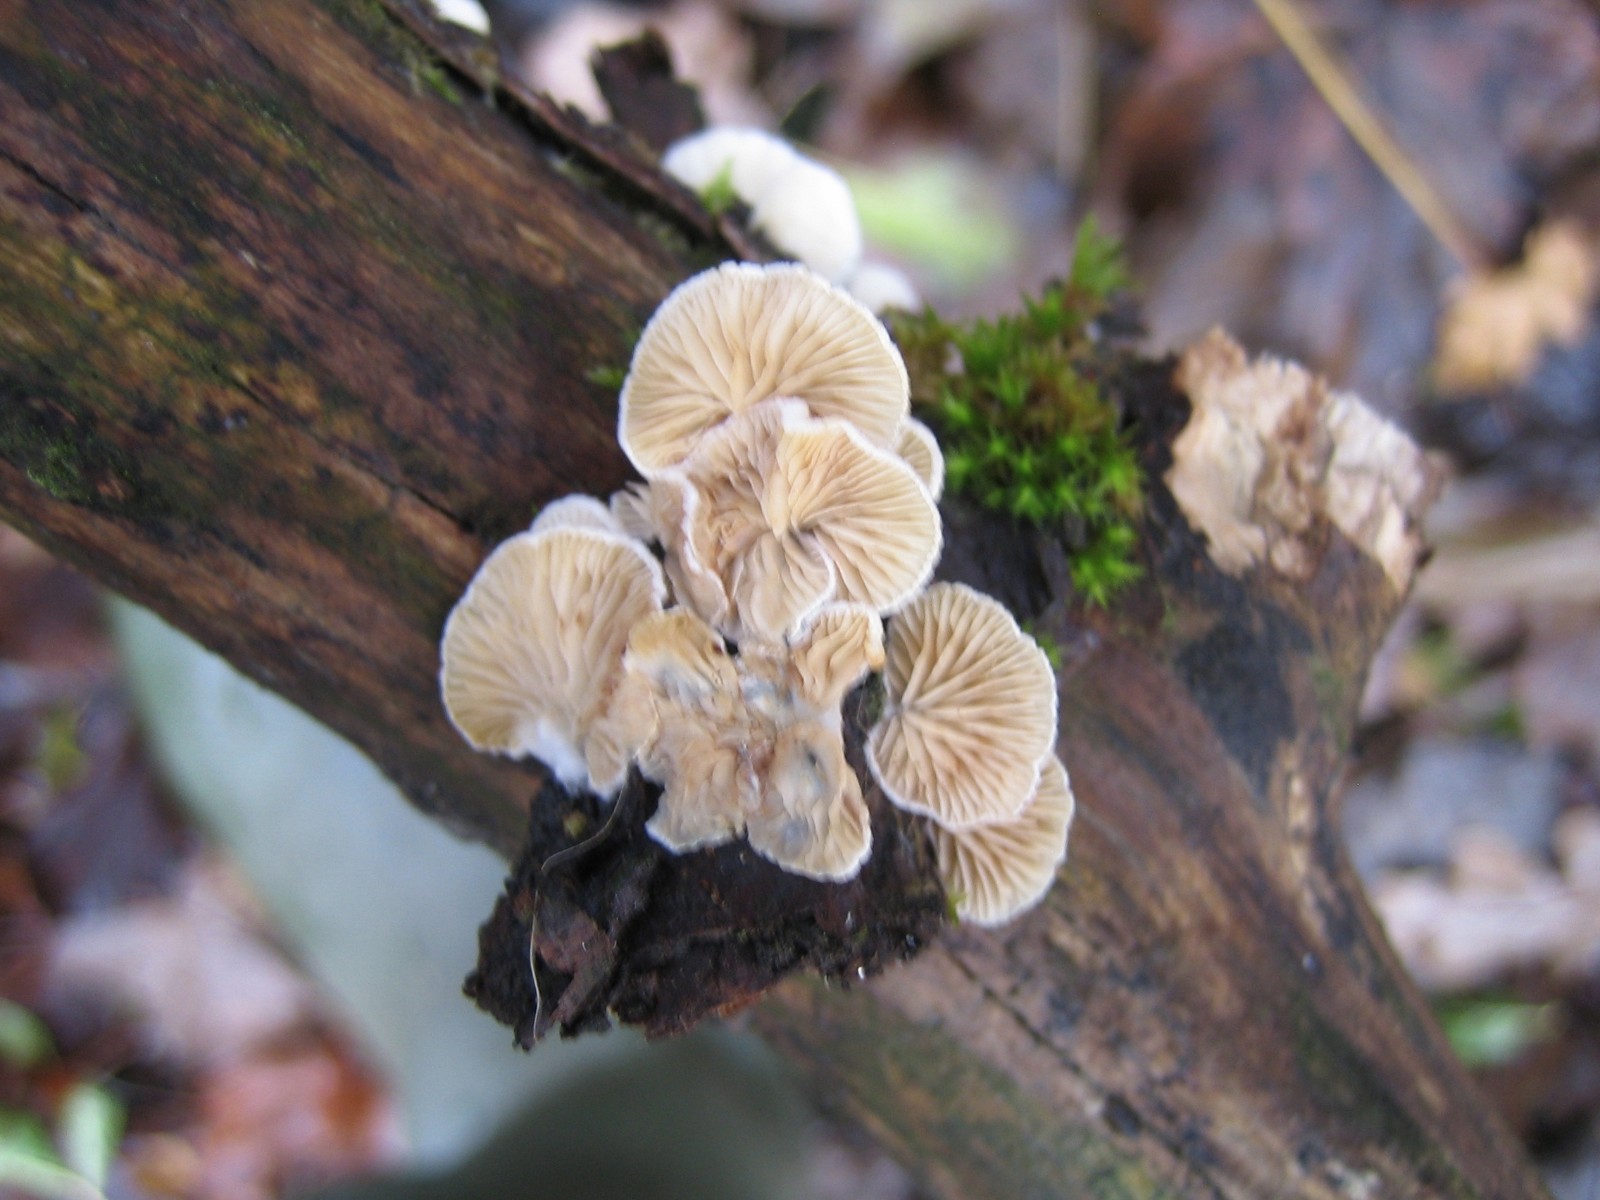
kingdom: Fungi
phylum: Basidiomycota
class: Agaricomycetes
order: Agaricales
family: Crepidotaceae
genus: Crepidotus
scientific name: Crepidotus
